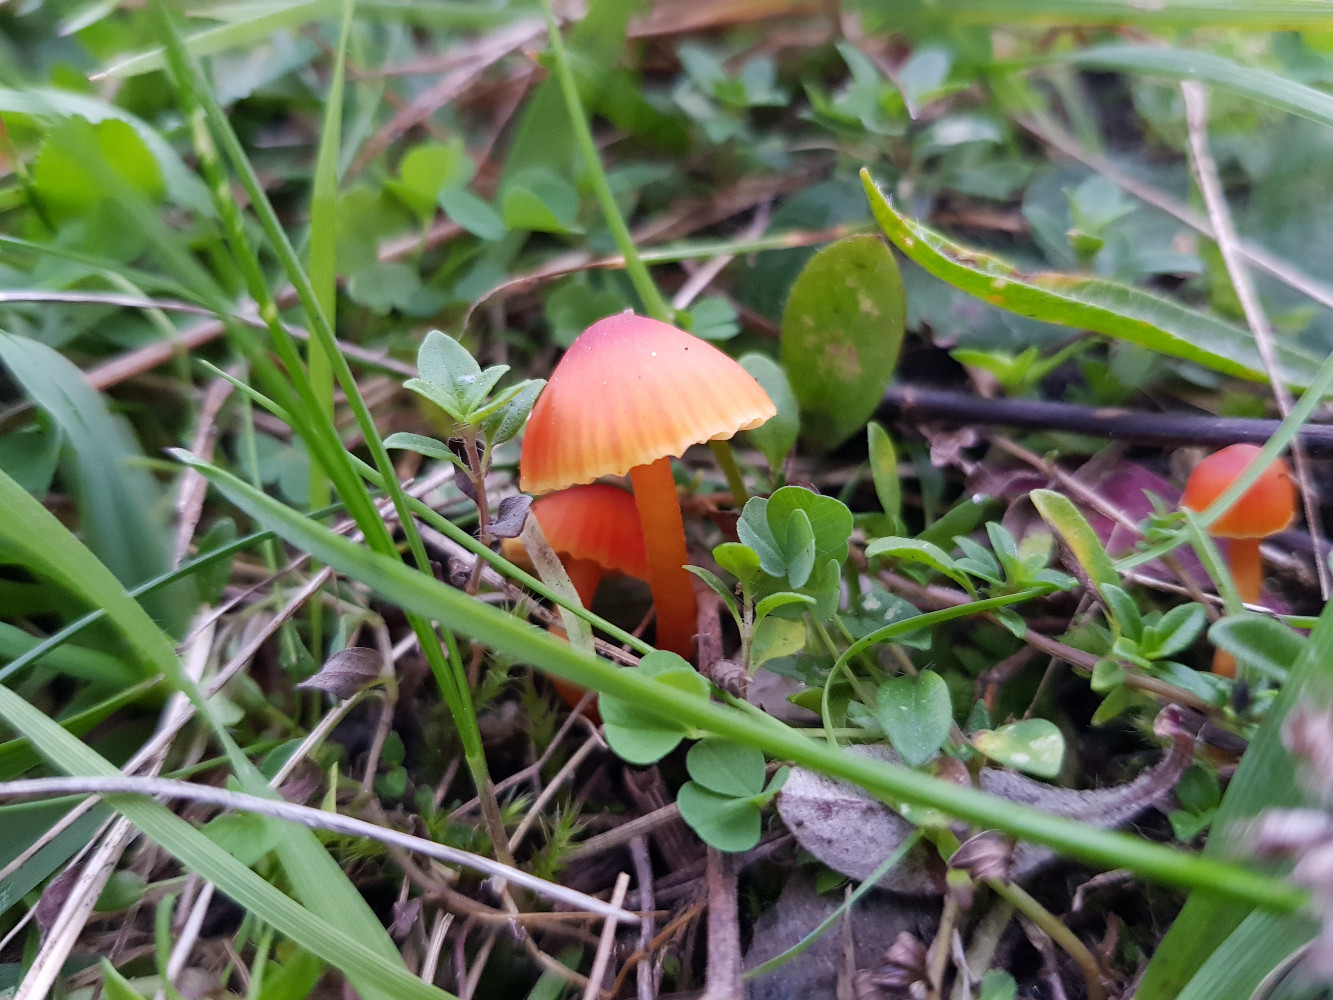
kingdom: Fungi
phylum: Basidiomycota
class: Agaricomycetes
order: Agaricales
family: Hygrophoraceae
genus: Hygrocybe
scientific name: Hygrocybe mucronella
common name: bitter vokshat
